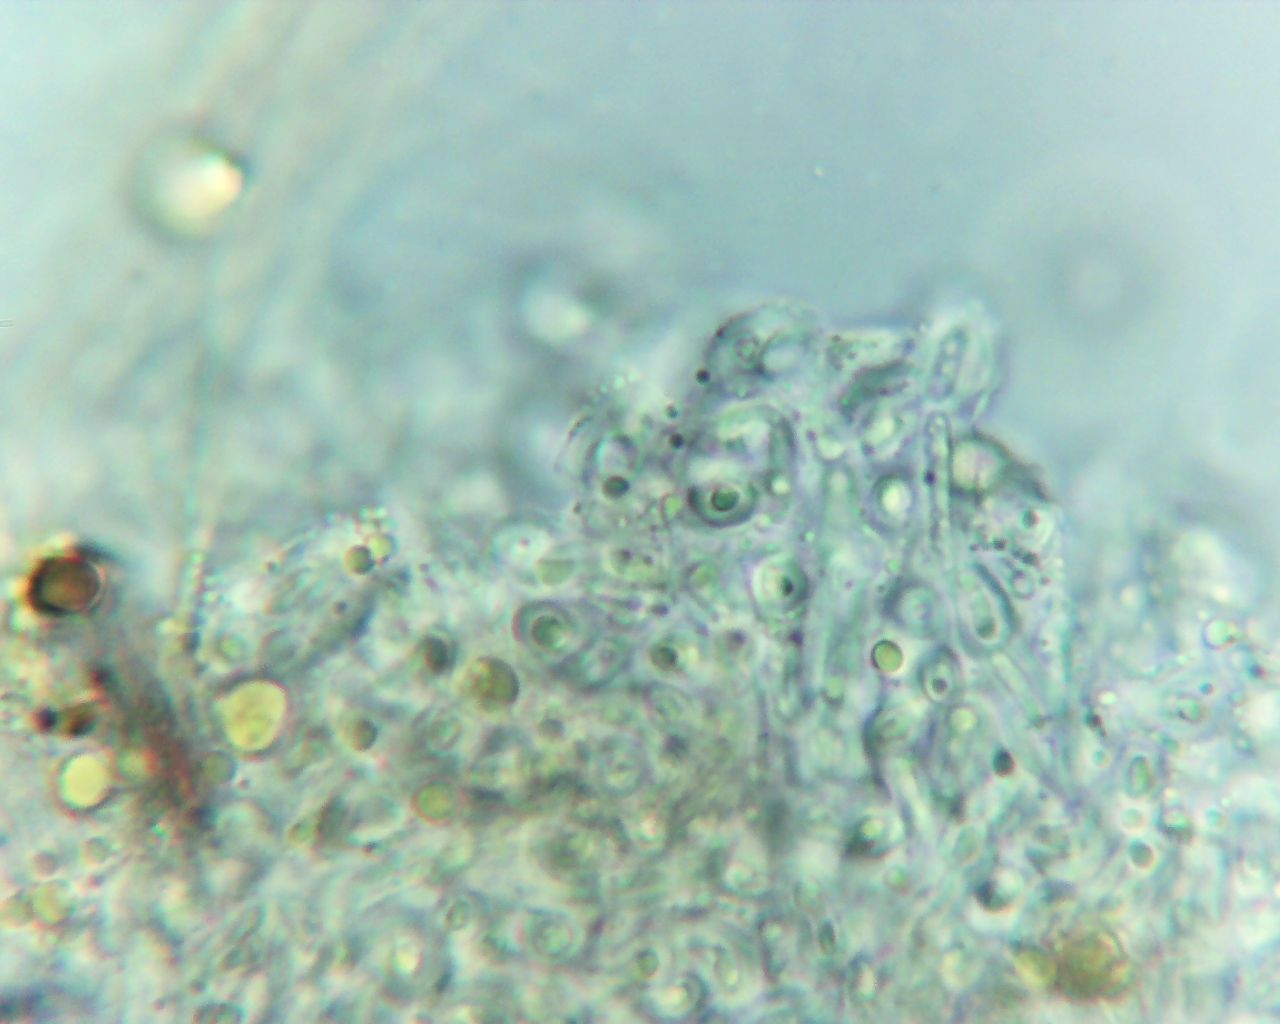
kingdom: Fungi
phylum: Ascomycota
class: Sareomycetes
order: Sareales
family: Sareaceae
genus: Sarea
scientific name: Sarea resinae
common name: orangegul harpiksskive
